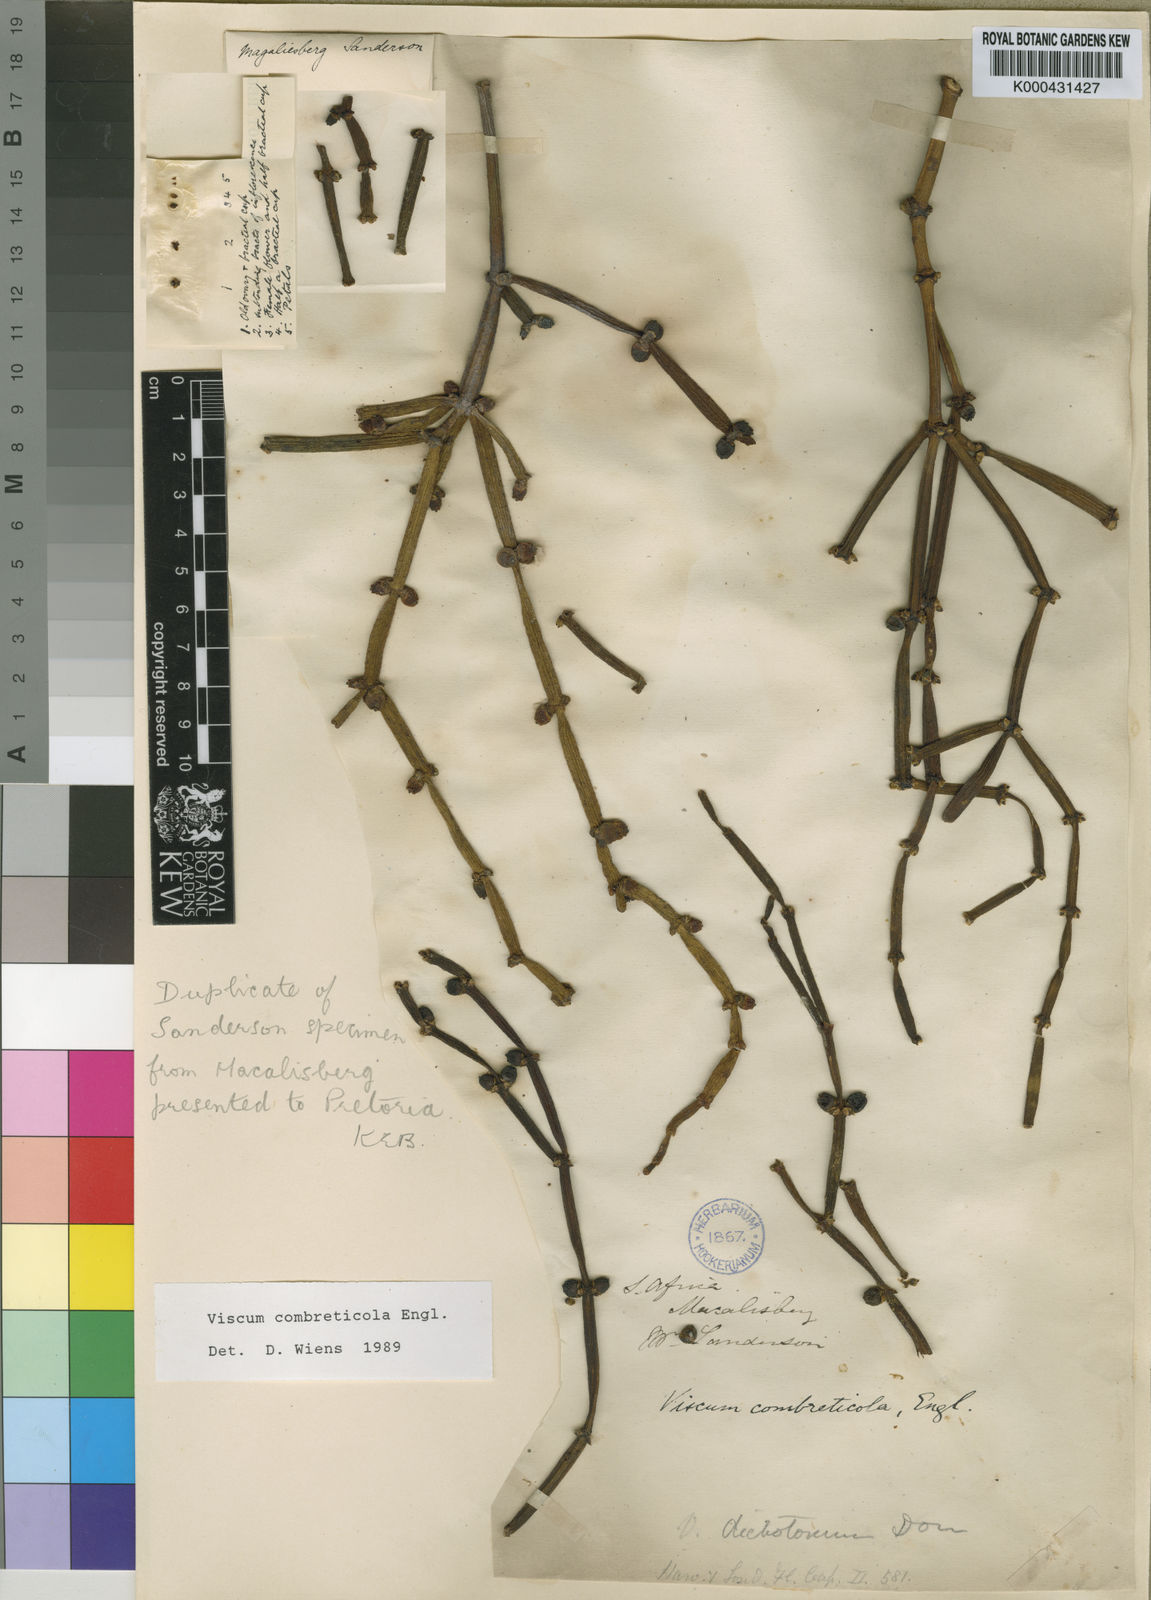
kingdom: Plantae
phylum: Tracheophyta
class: Magnoliopsida
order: Santalales
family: Viscaceae
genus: Viscum
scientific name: Viscum combreticola
